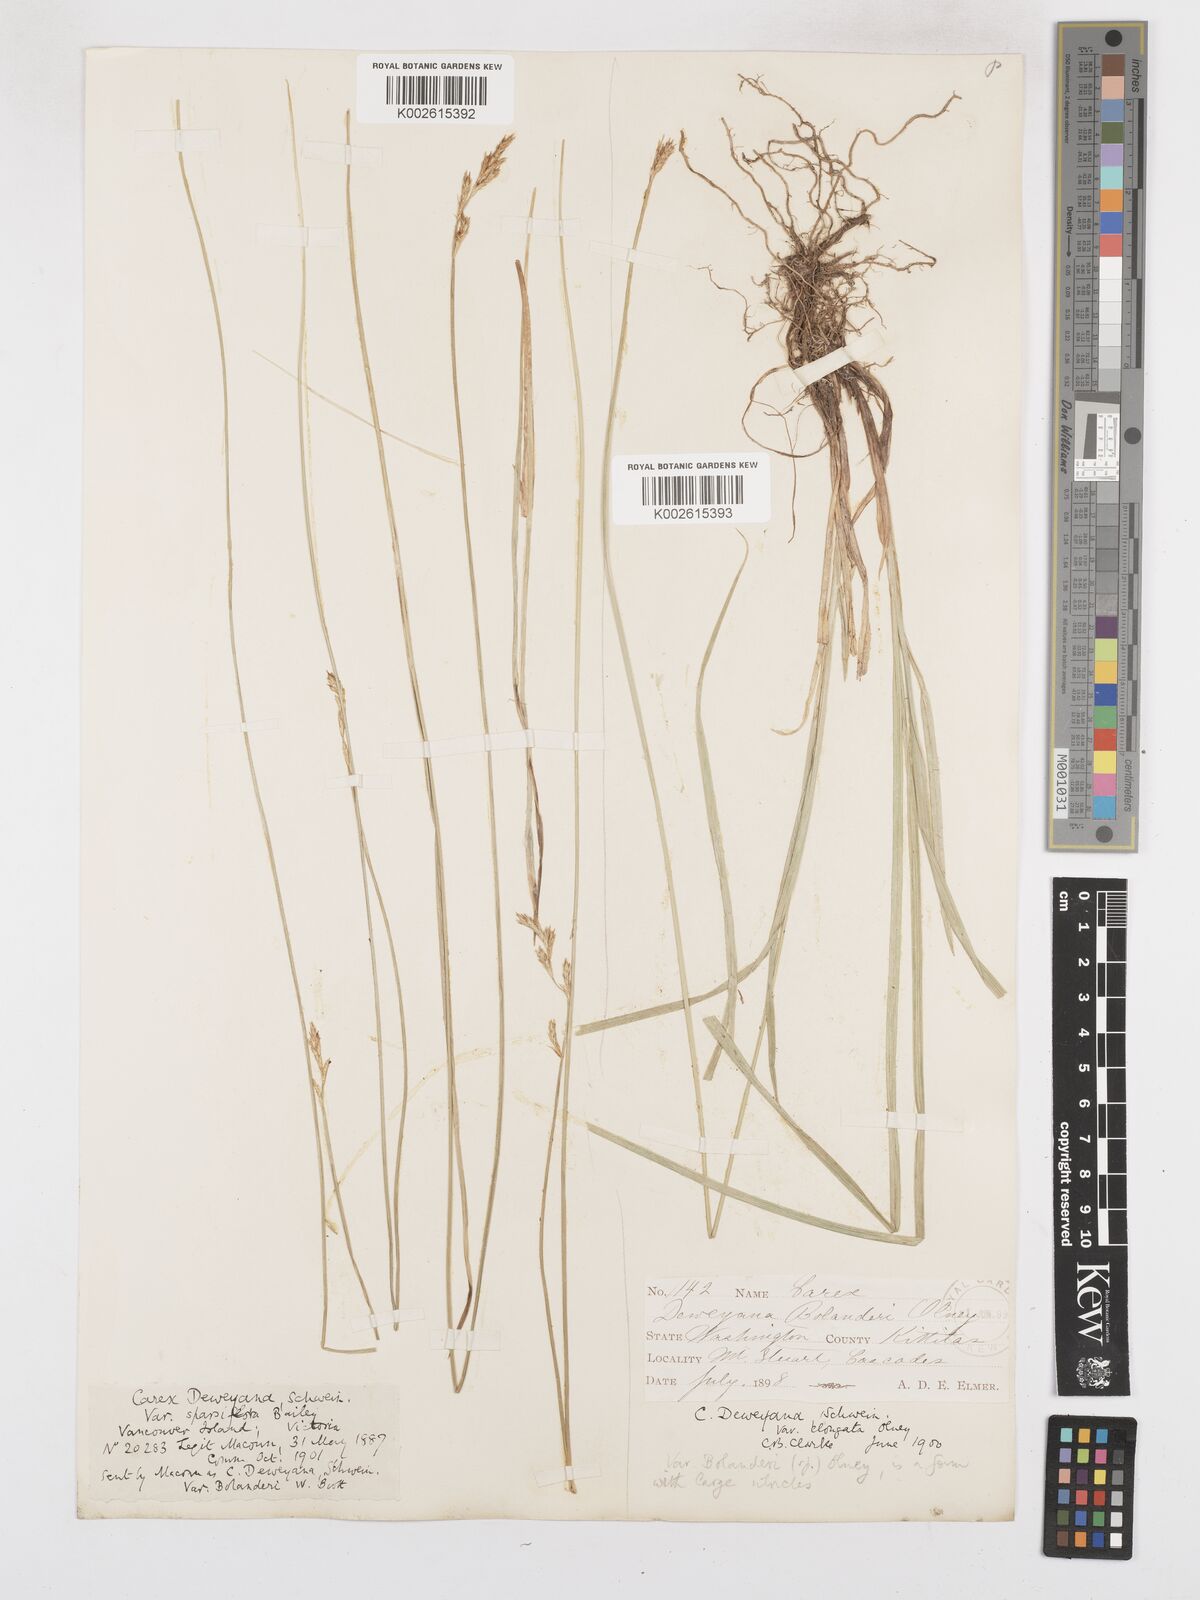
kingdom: Plantae
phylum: Tracheophyta
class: Liliopsida
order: Poales
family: Cyperaceae
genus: Carex
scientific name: Carex bolanderi
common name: Bolander's sedge
